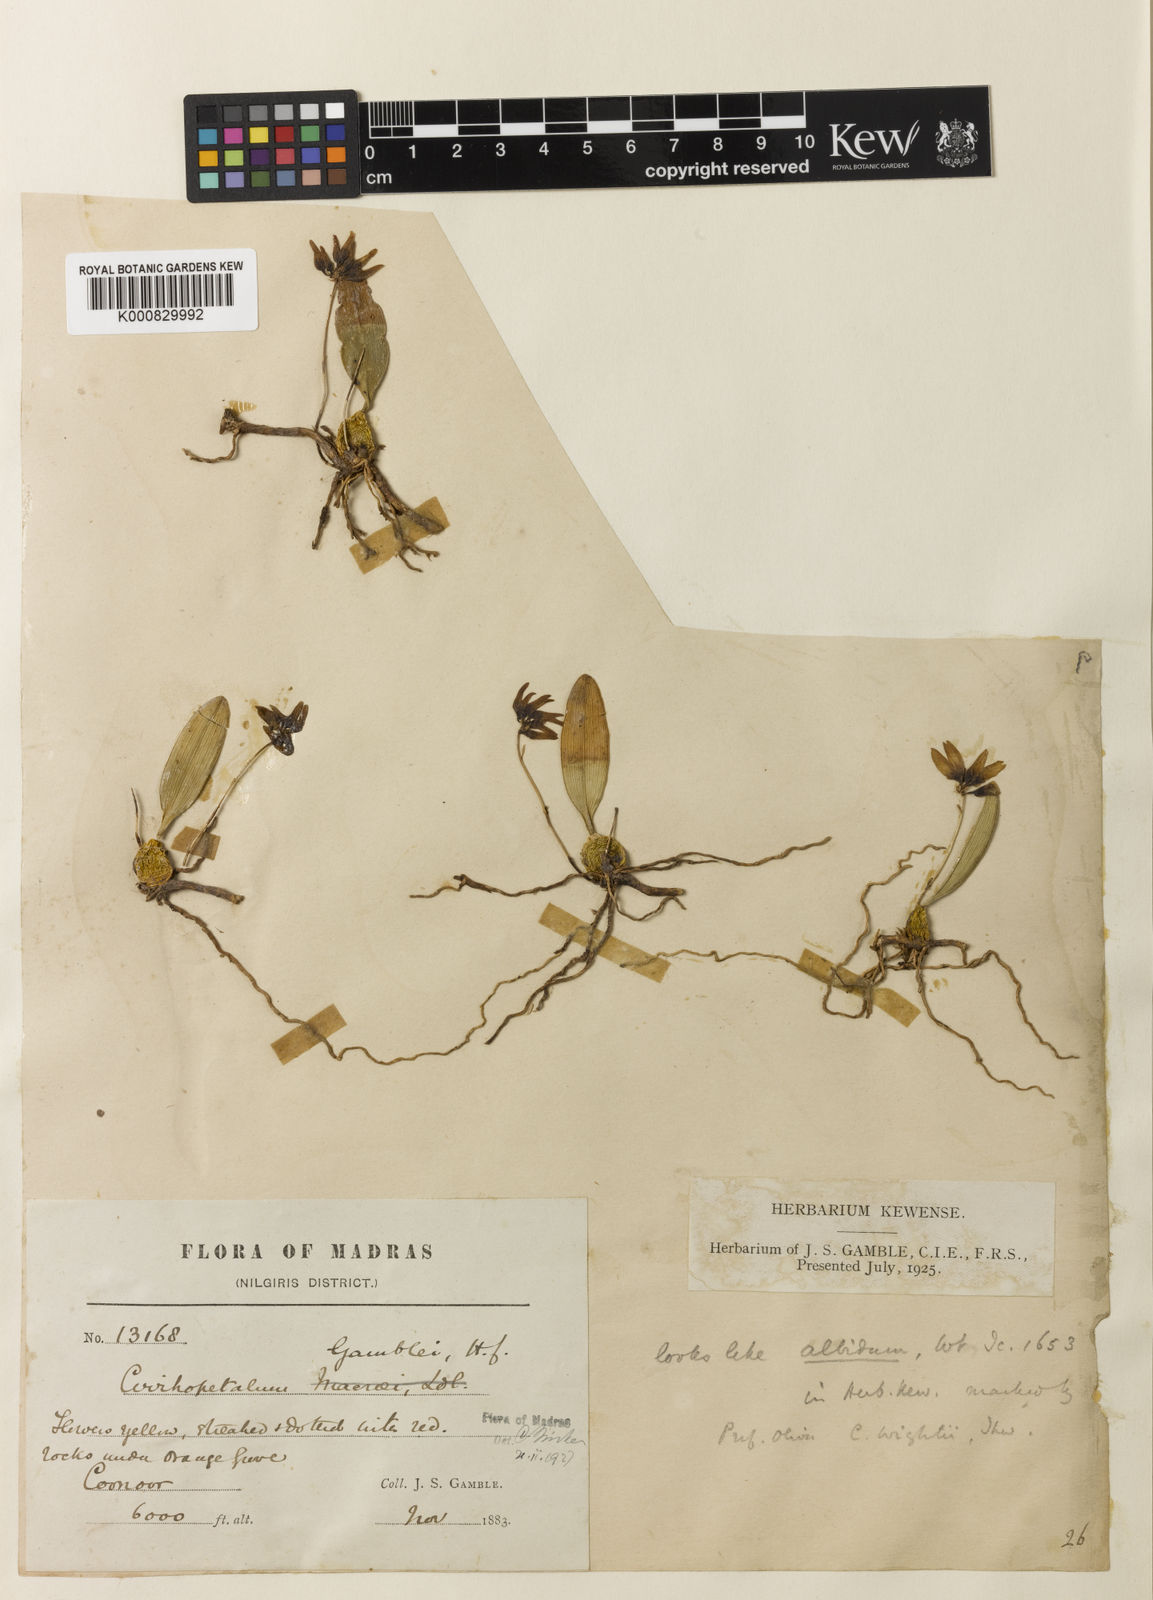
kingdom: Plantae
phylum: Tracheophyta
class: Liliopsida
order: Asparagales
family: Orchidaceae
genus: Bulbophyllum
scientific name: Bulbophyllum fischeri
